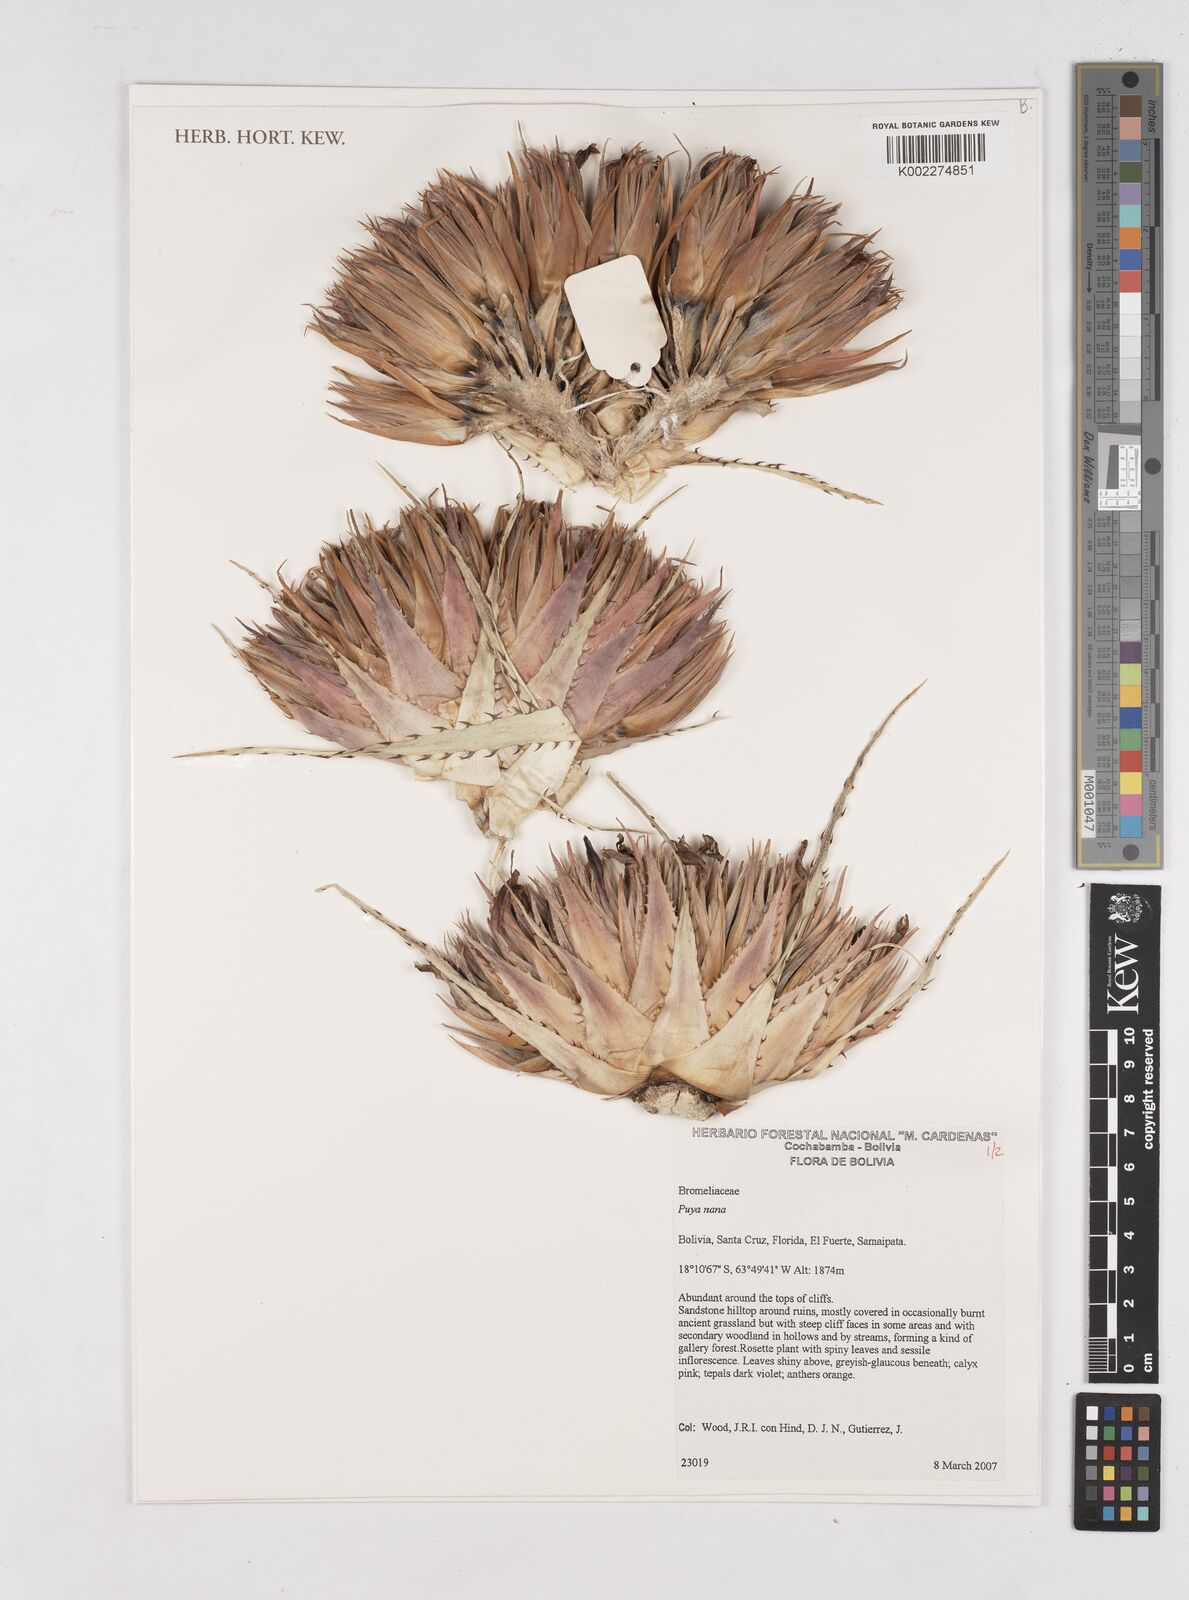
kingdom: Plantae
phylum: Tracheophyta
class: Liliopsida
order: Poales
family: Bromeliaceae
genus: Puya
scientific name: Puya nana
